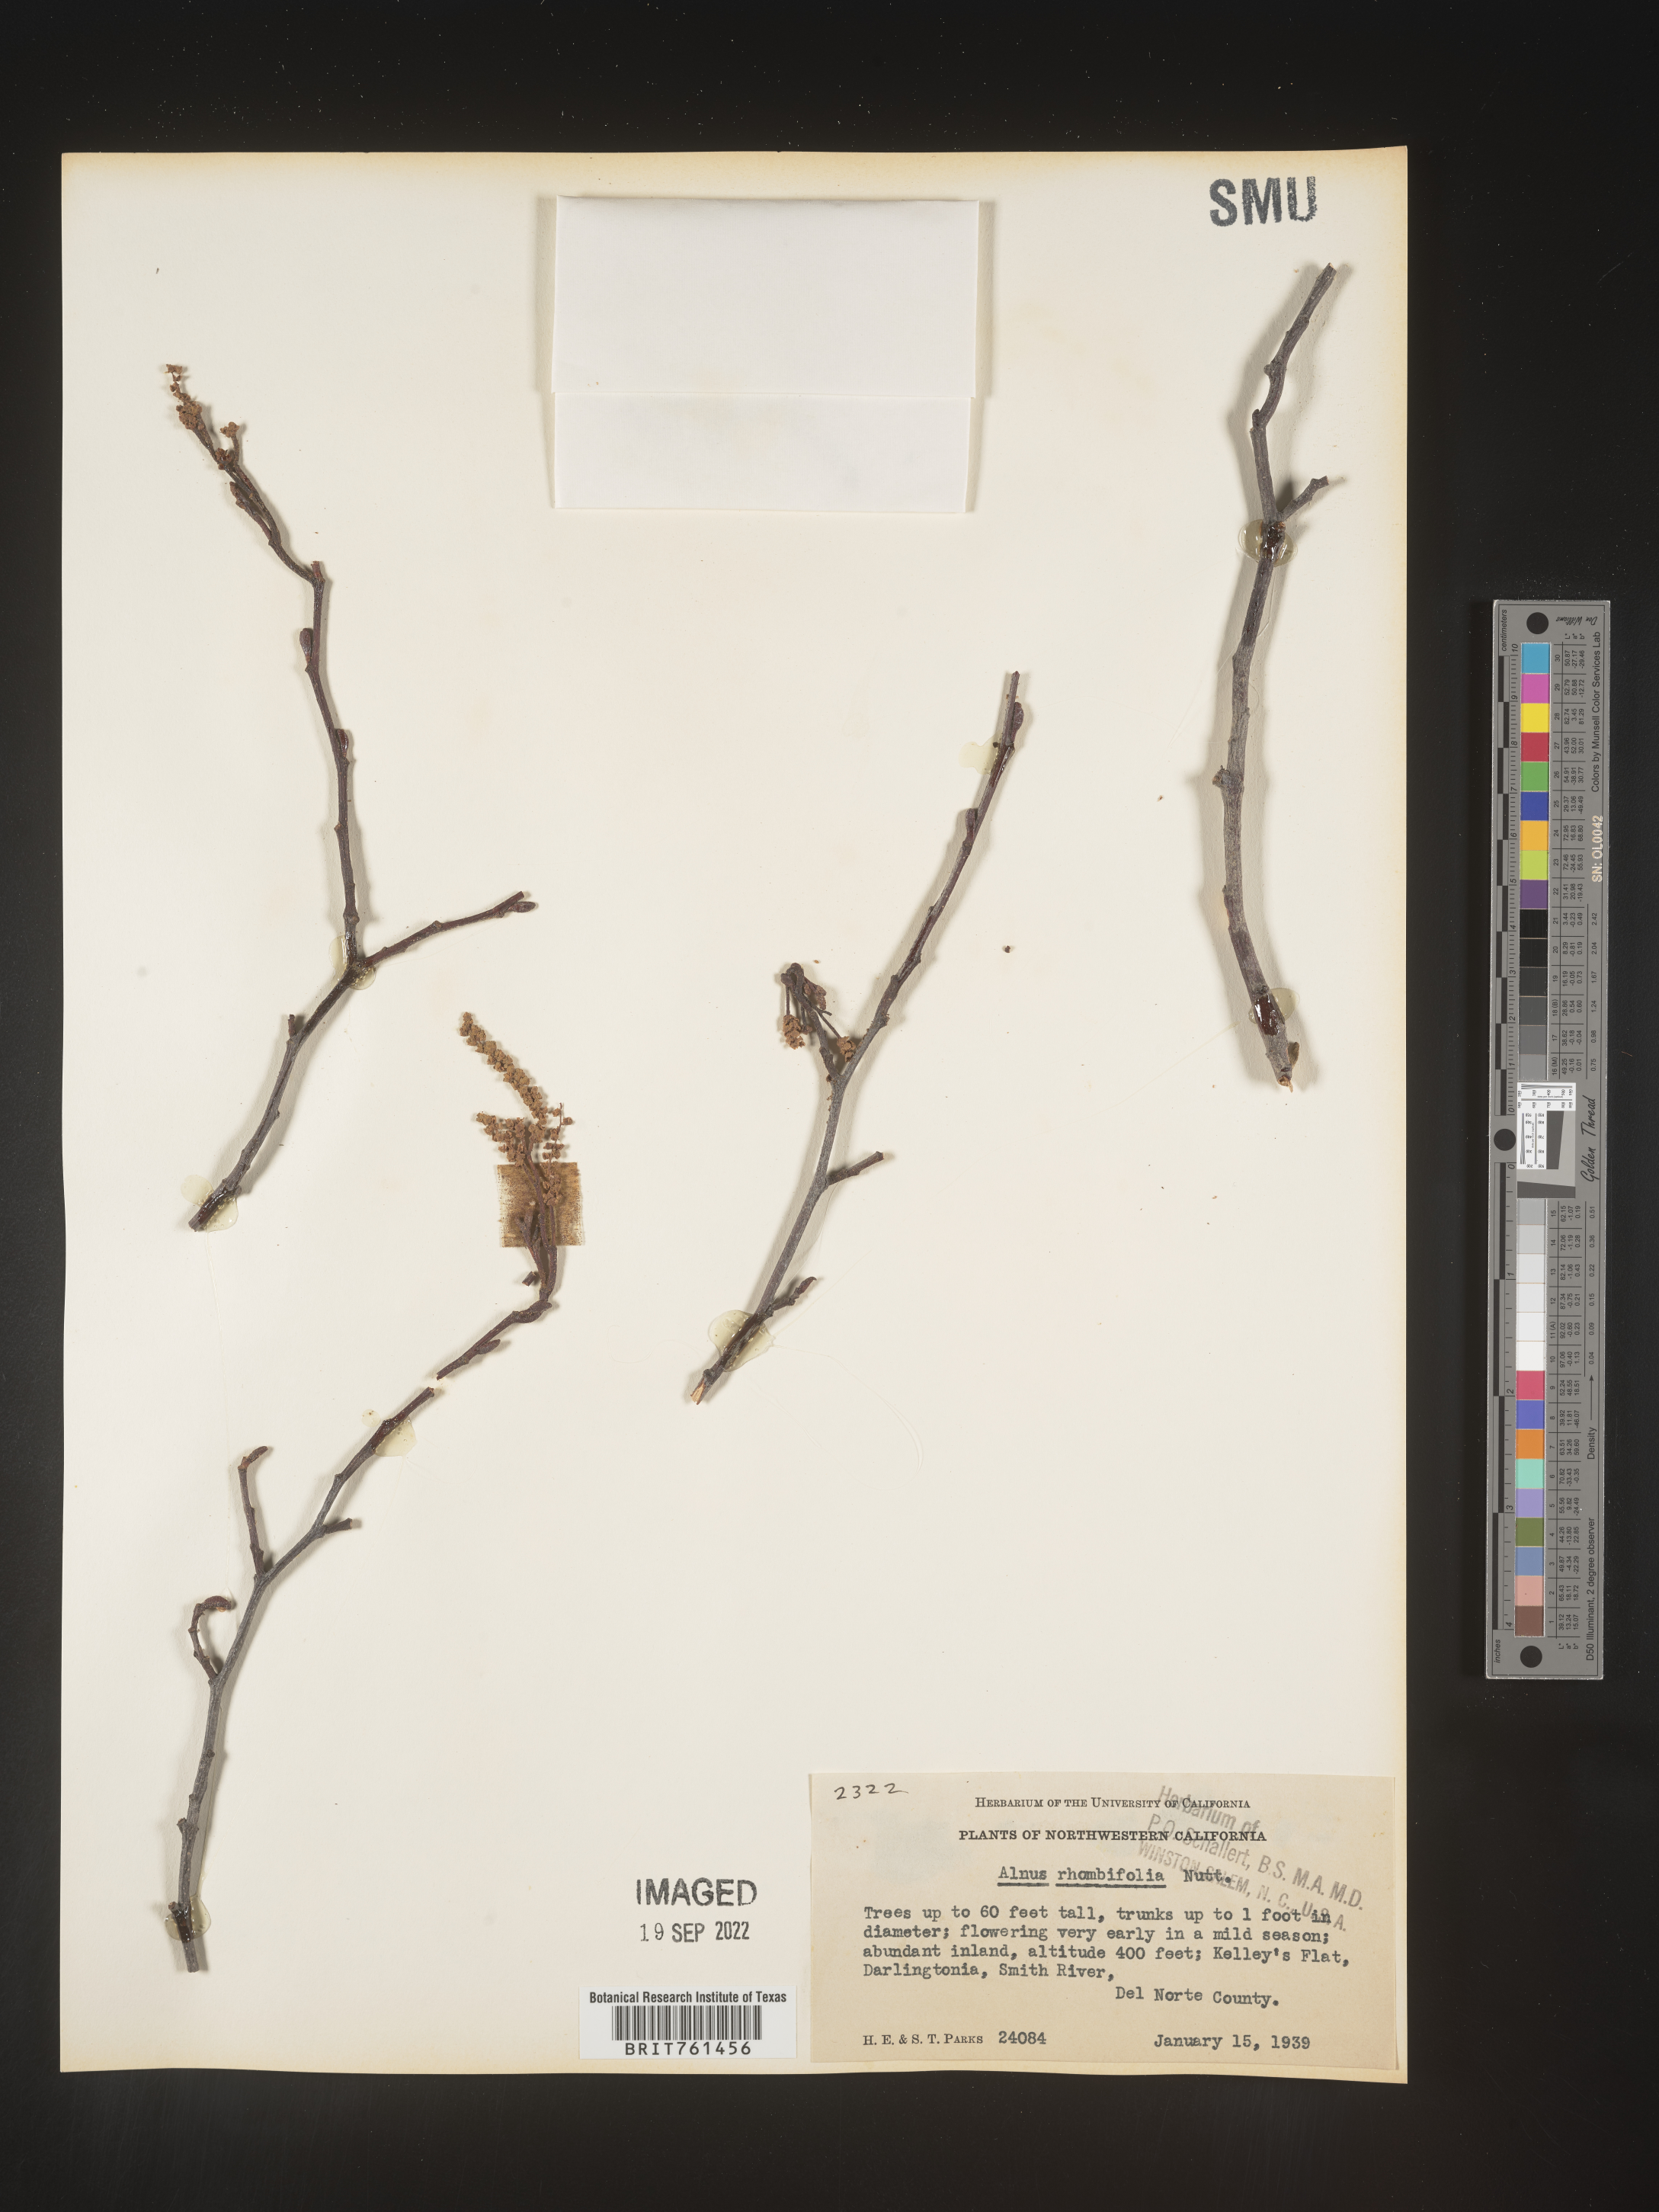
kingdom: Plantae
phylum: Tracheophyta
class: Magnoliopsida
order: Fagales
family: Betulaceae
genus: Alnus
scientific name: Alnus rhombifolia
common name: California alder
